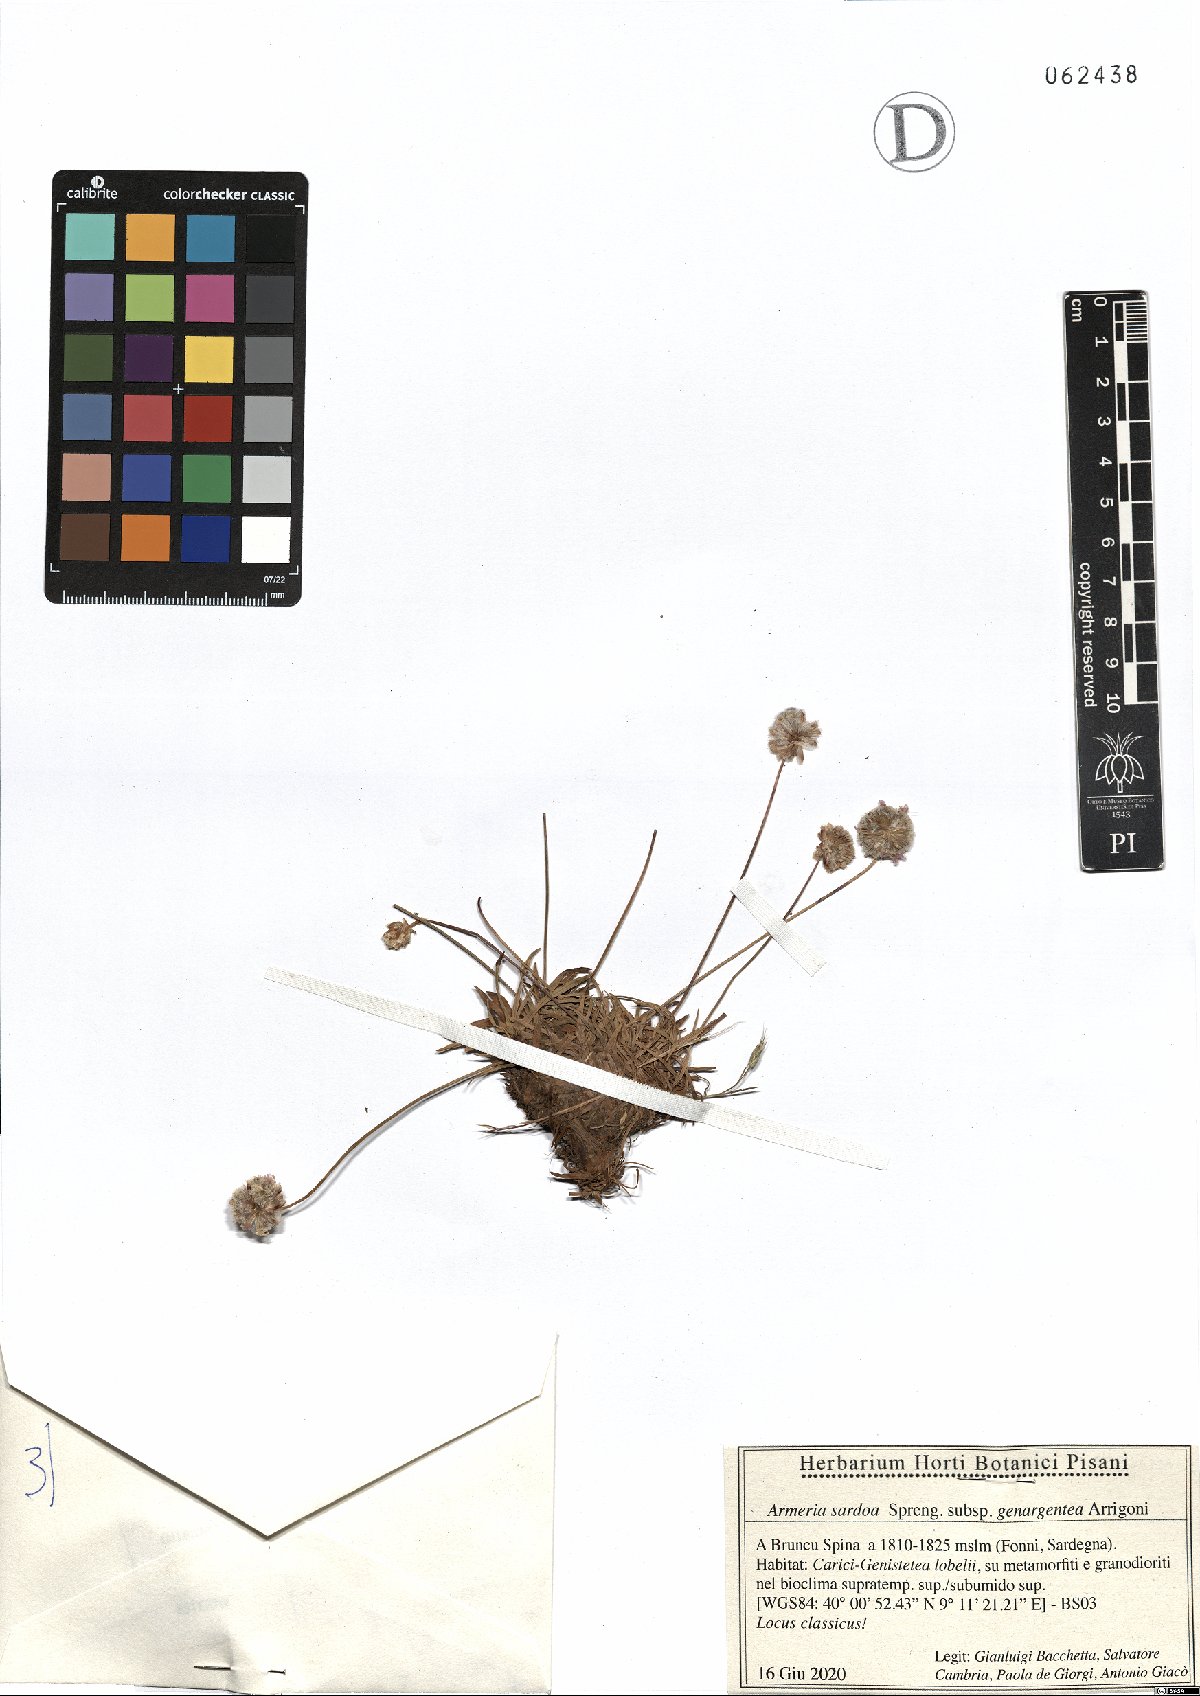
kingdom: Plantae
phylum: Tracheophyta
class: Magnoliopsida
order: Caryophyllales
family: Plumbaginaceae
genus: Armeria
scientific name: Armeria sardoa
